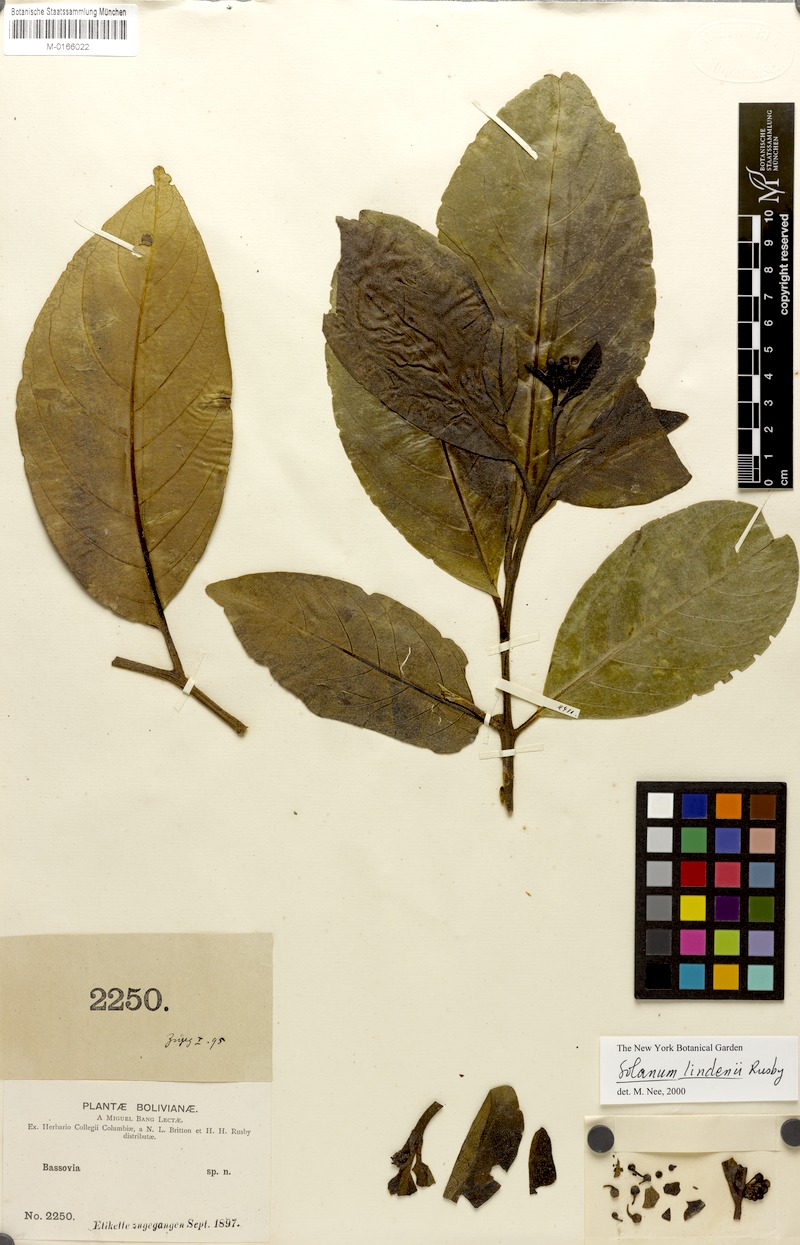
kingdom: Plantae
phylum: Tracheophyta
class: Magnoliopsida
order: Solanales
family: Solanaceae
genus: Solanum
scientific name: Solanum lindenii
